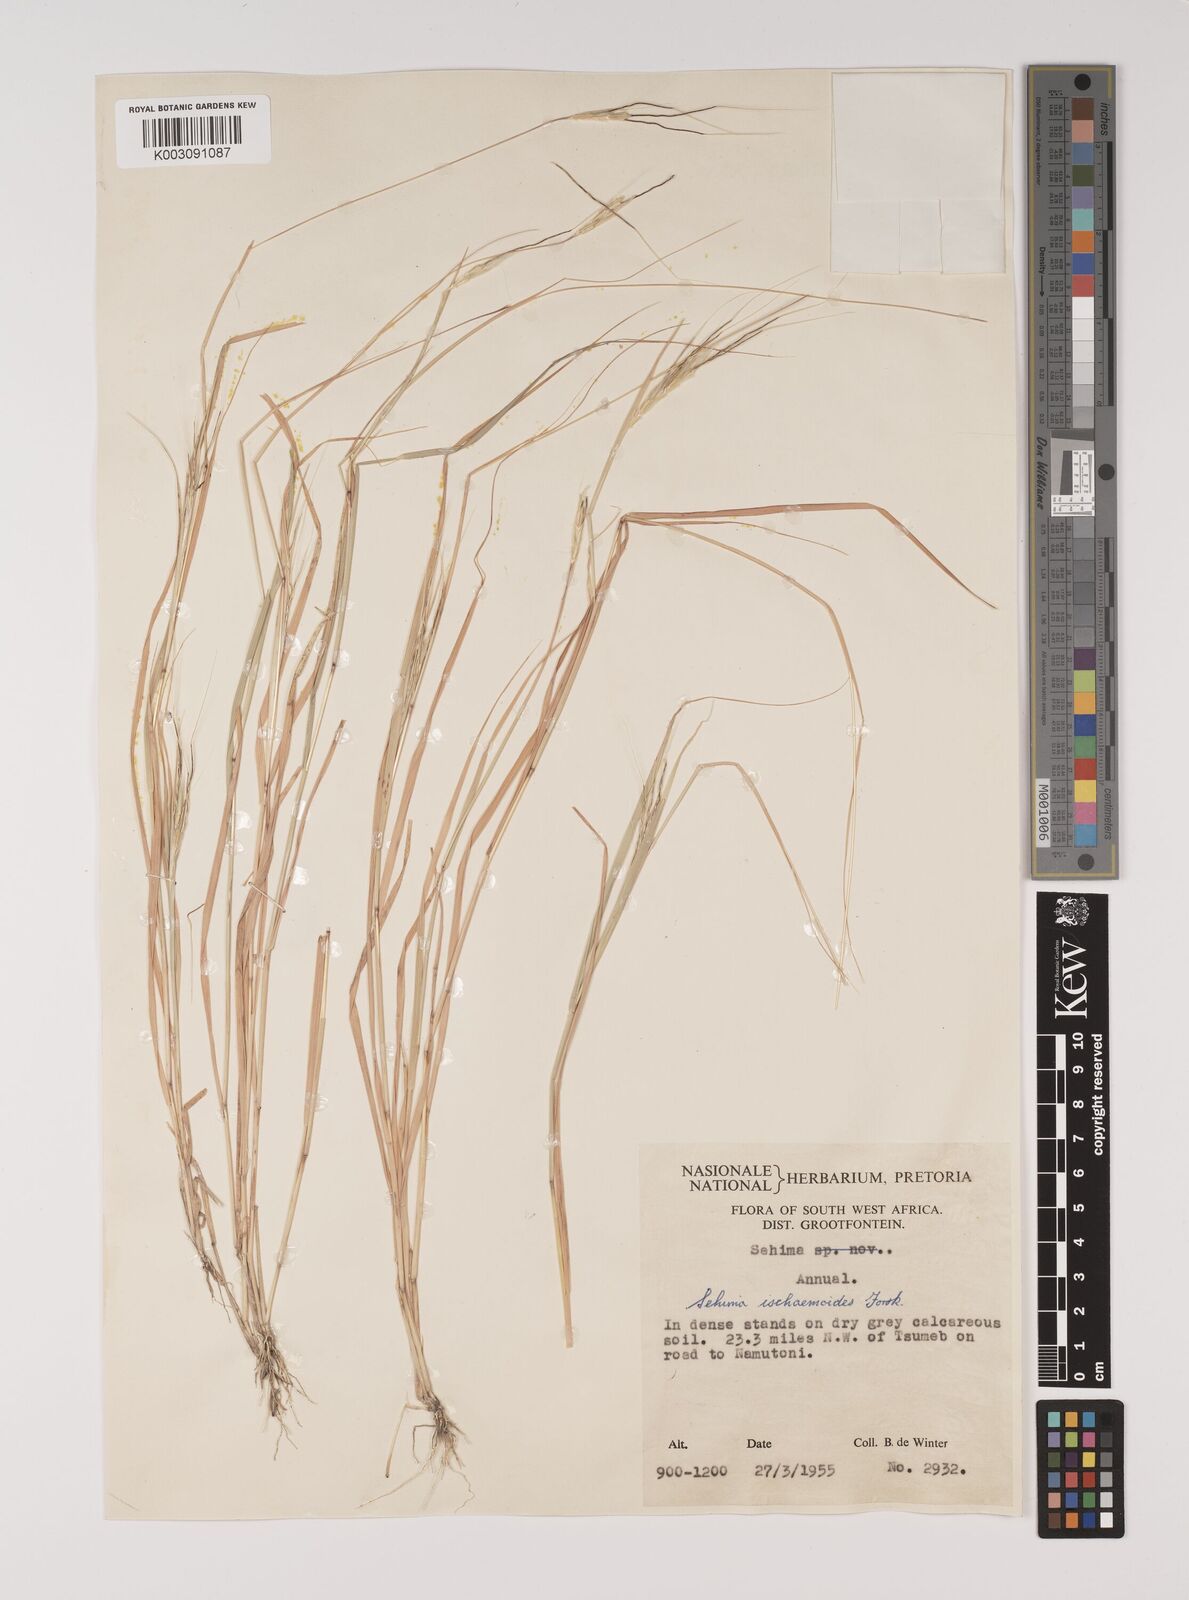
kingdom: Plantae
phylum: Tracheophyta
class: Liliopsida
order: Poales
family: Poaceae
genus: Sehima
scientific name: Sehima ischaemoides
